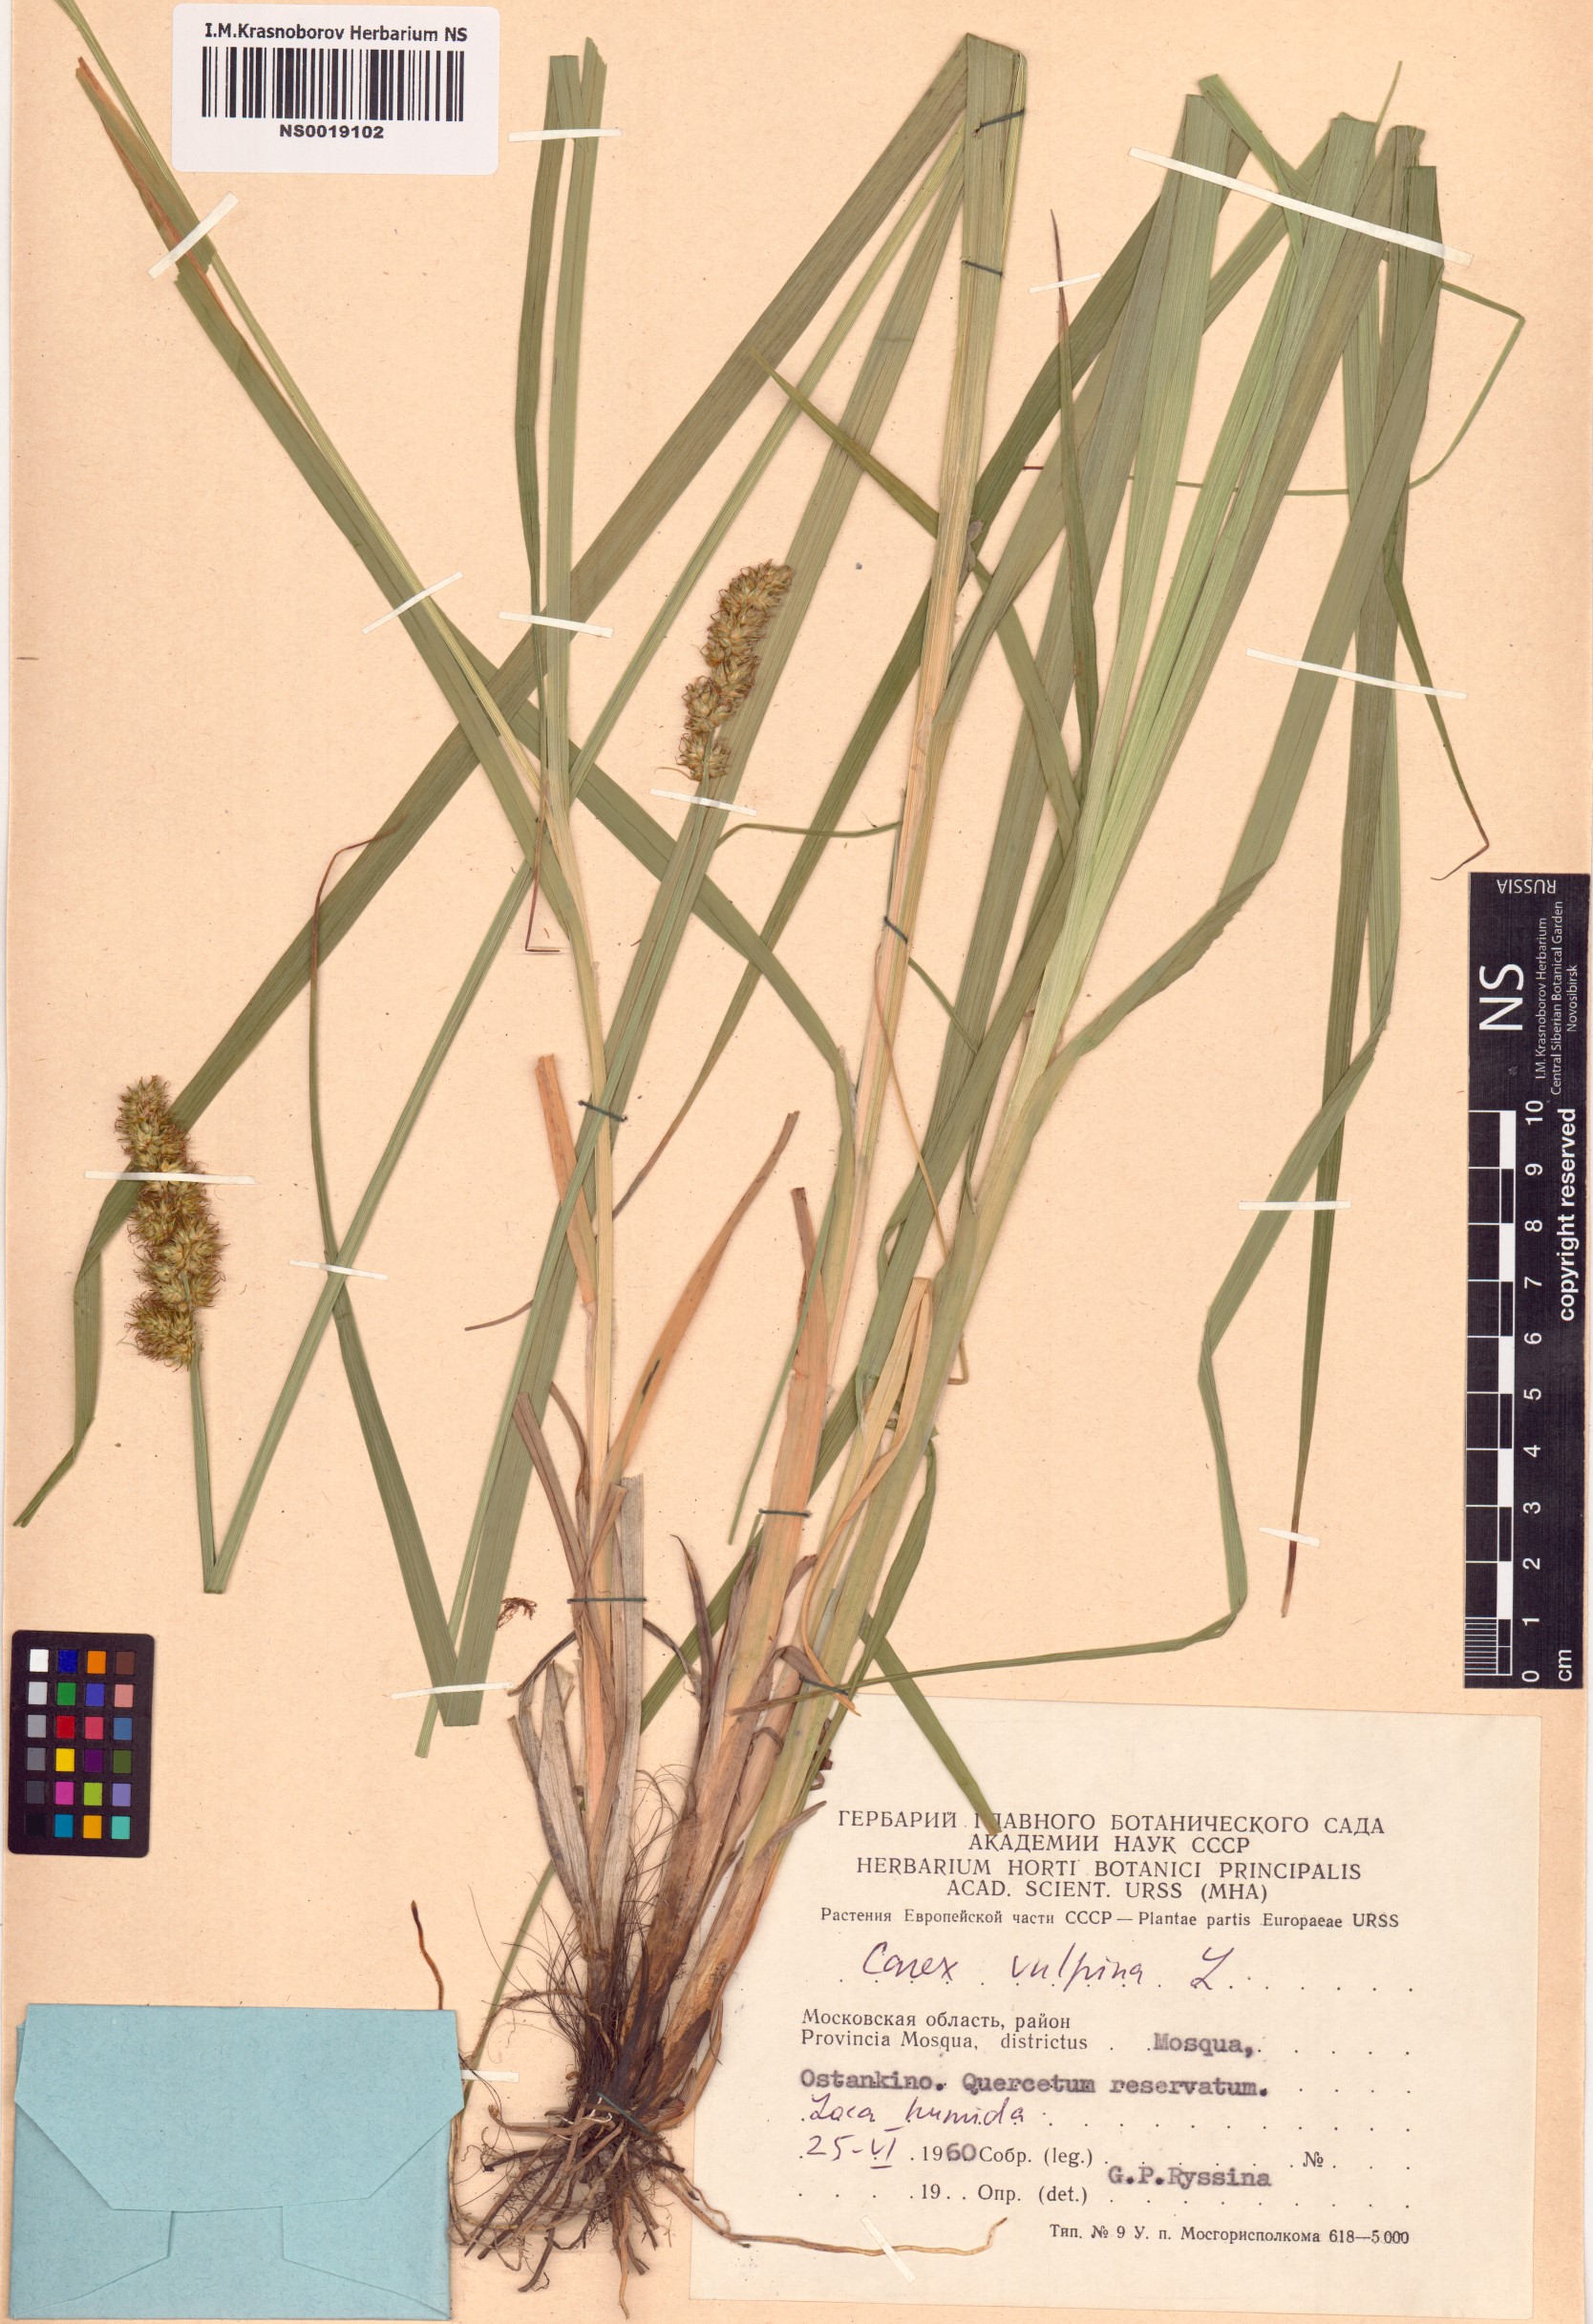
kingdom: Plantae
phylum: Tracheophyta
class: Liliopsida
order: Poales
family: Cyperaceae
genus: Carex
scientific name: Carex vulpina
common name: True fox-sedge
